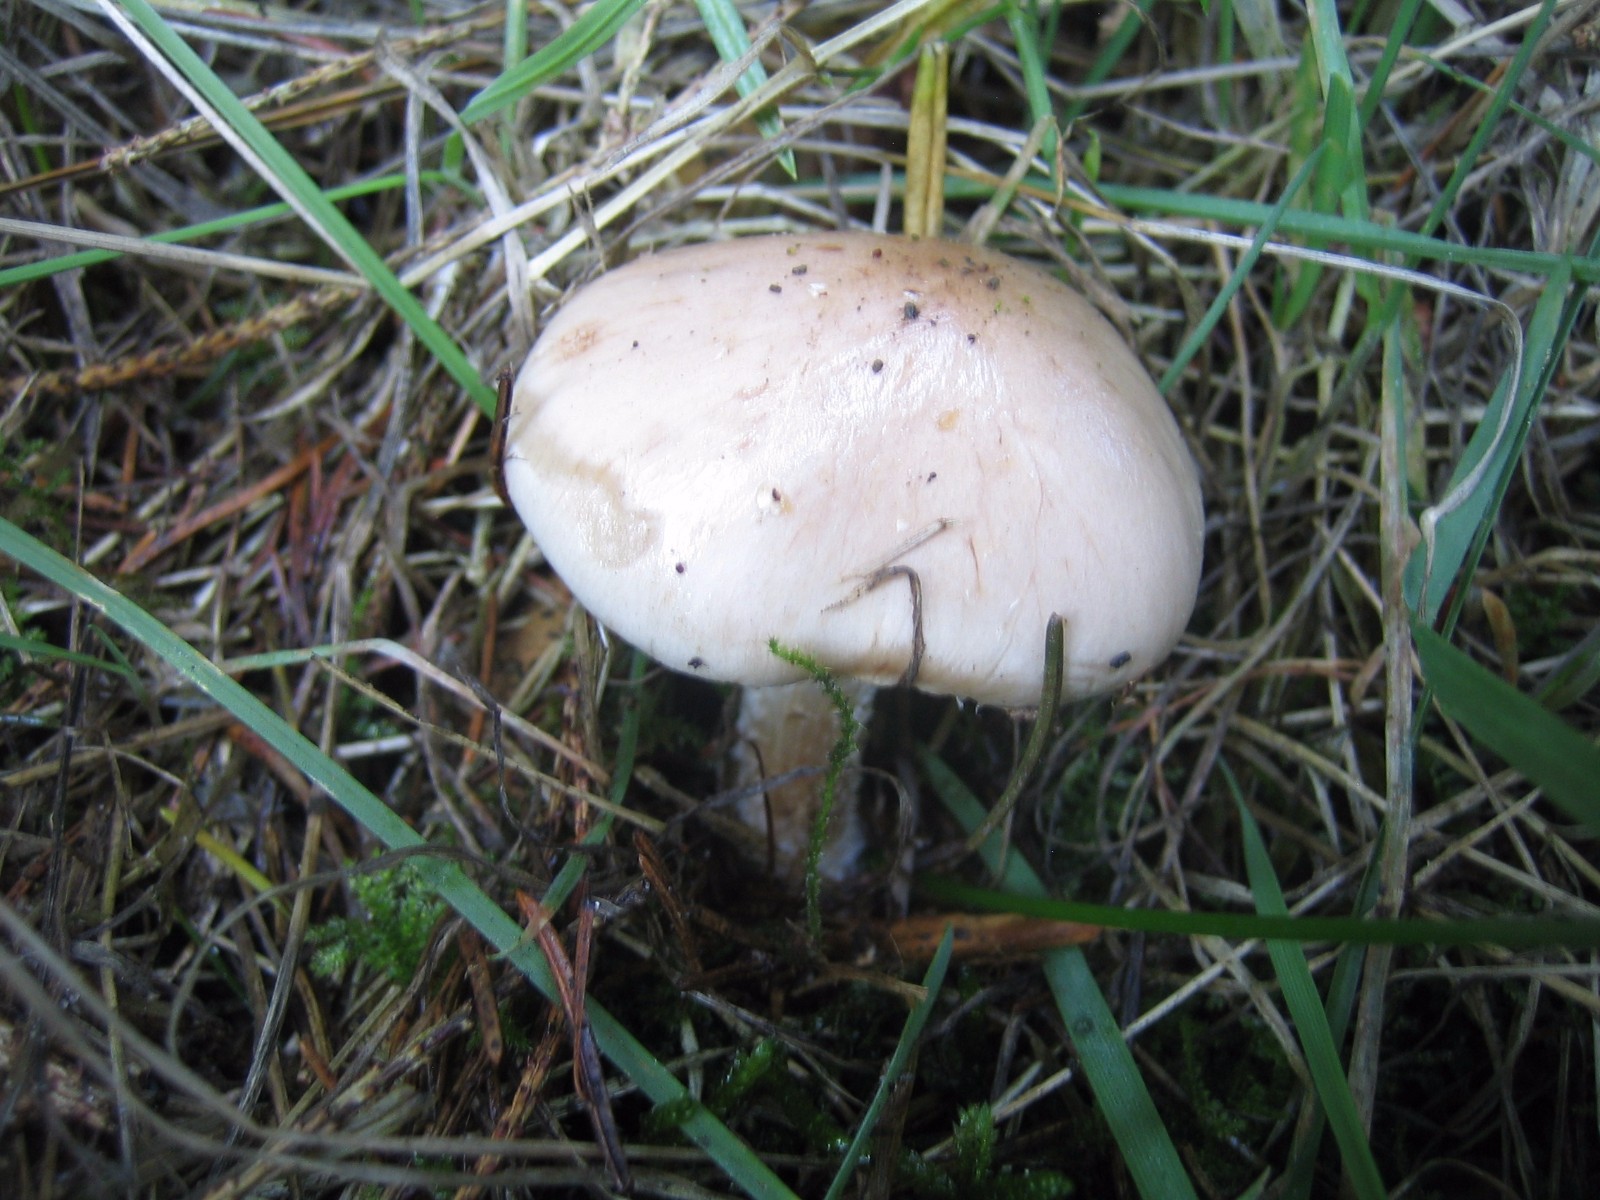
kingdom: Fungi
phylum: Basidiomycota
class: Agaricomycetes
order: Agaricales
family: Strophariaceae
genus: Pholiota
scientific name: Pholiota lenta
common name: løv-skælhat
